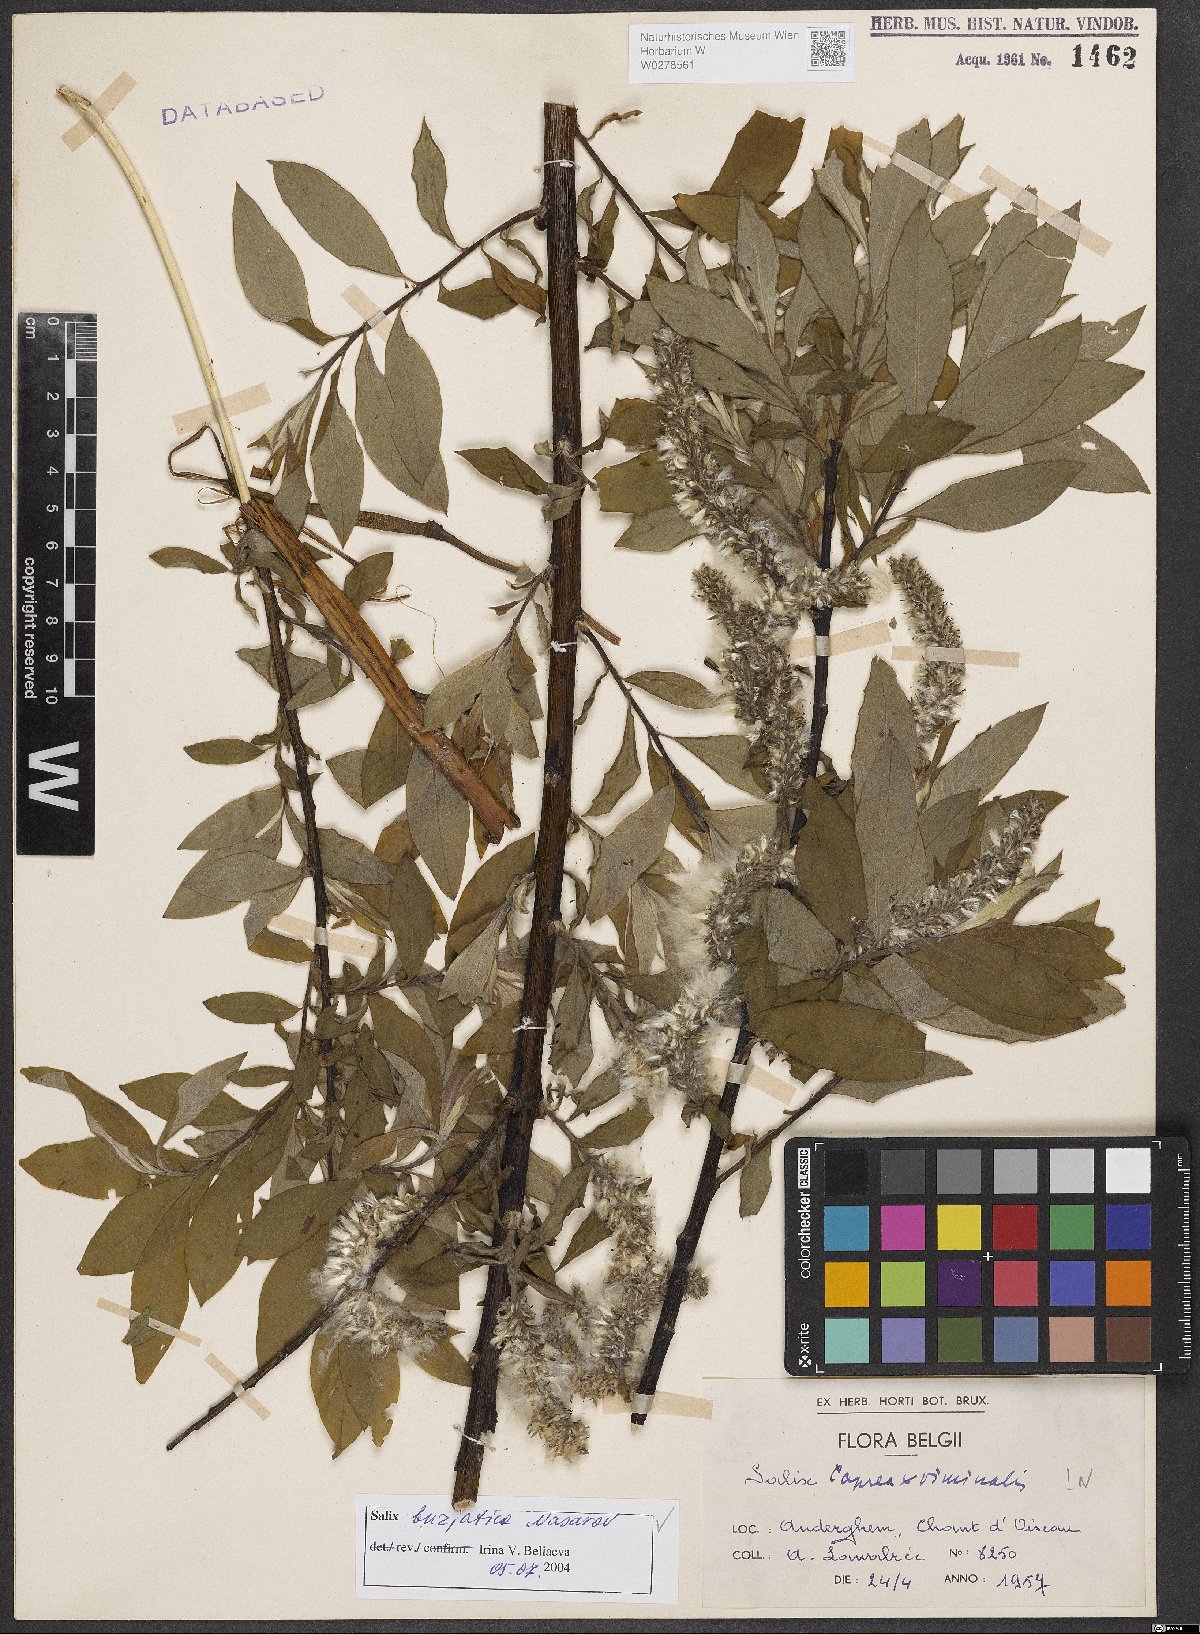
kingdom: Plantae
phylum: Tracheophyta
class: Magnoliopsida
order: Malpighiales
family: Salicaceae
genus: Salix
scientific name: Salix gmelinii
